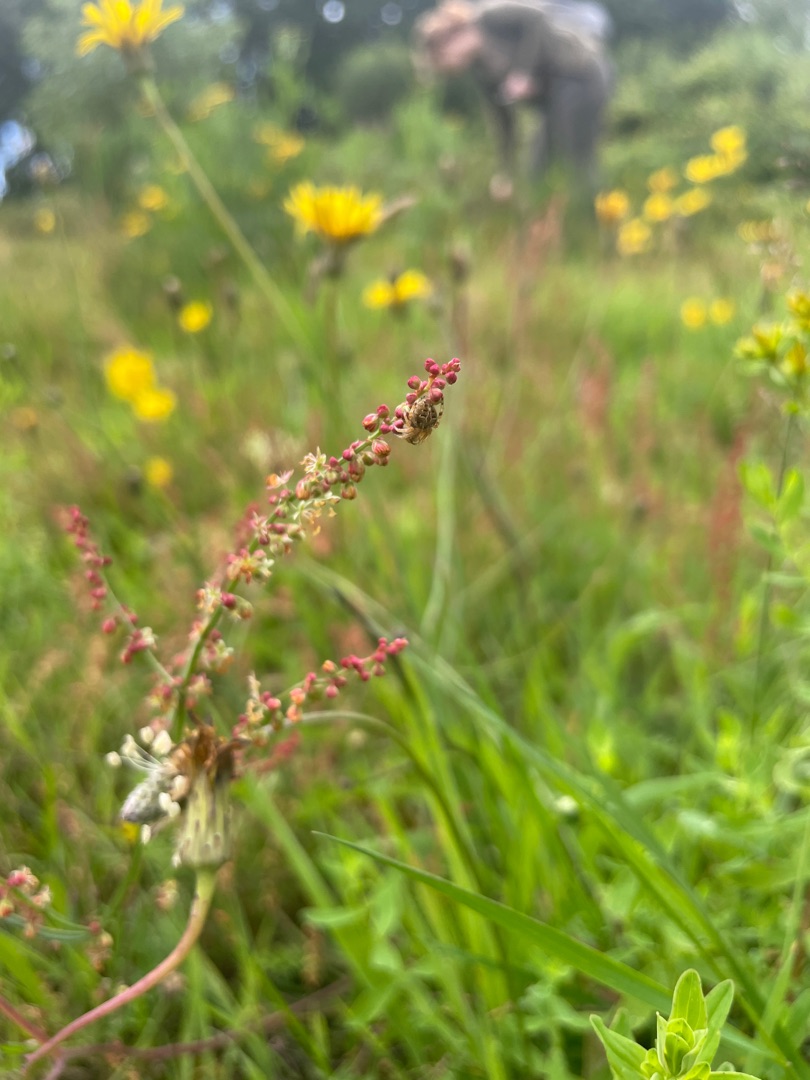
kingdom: Plantae
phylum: Tracheophyta
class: Magnoliopsida
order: Caryophyllales
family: Polygonaceae
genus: Rumex
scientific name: Rumex acetosella
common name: Rødknæ
